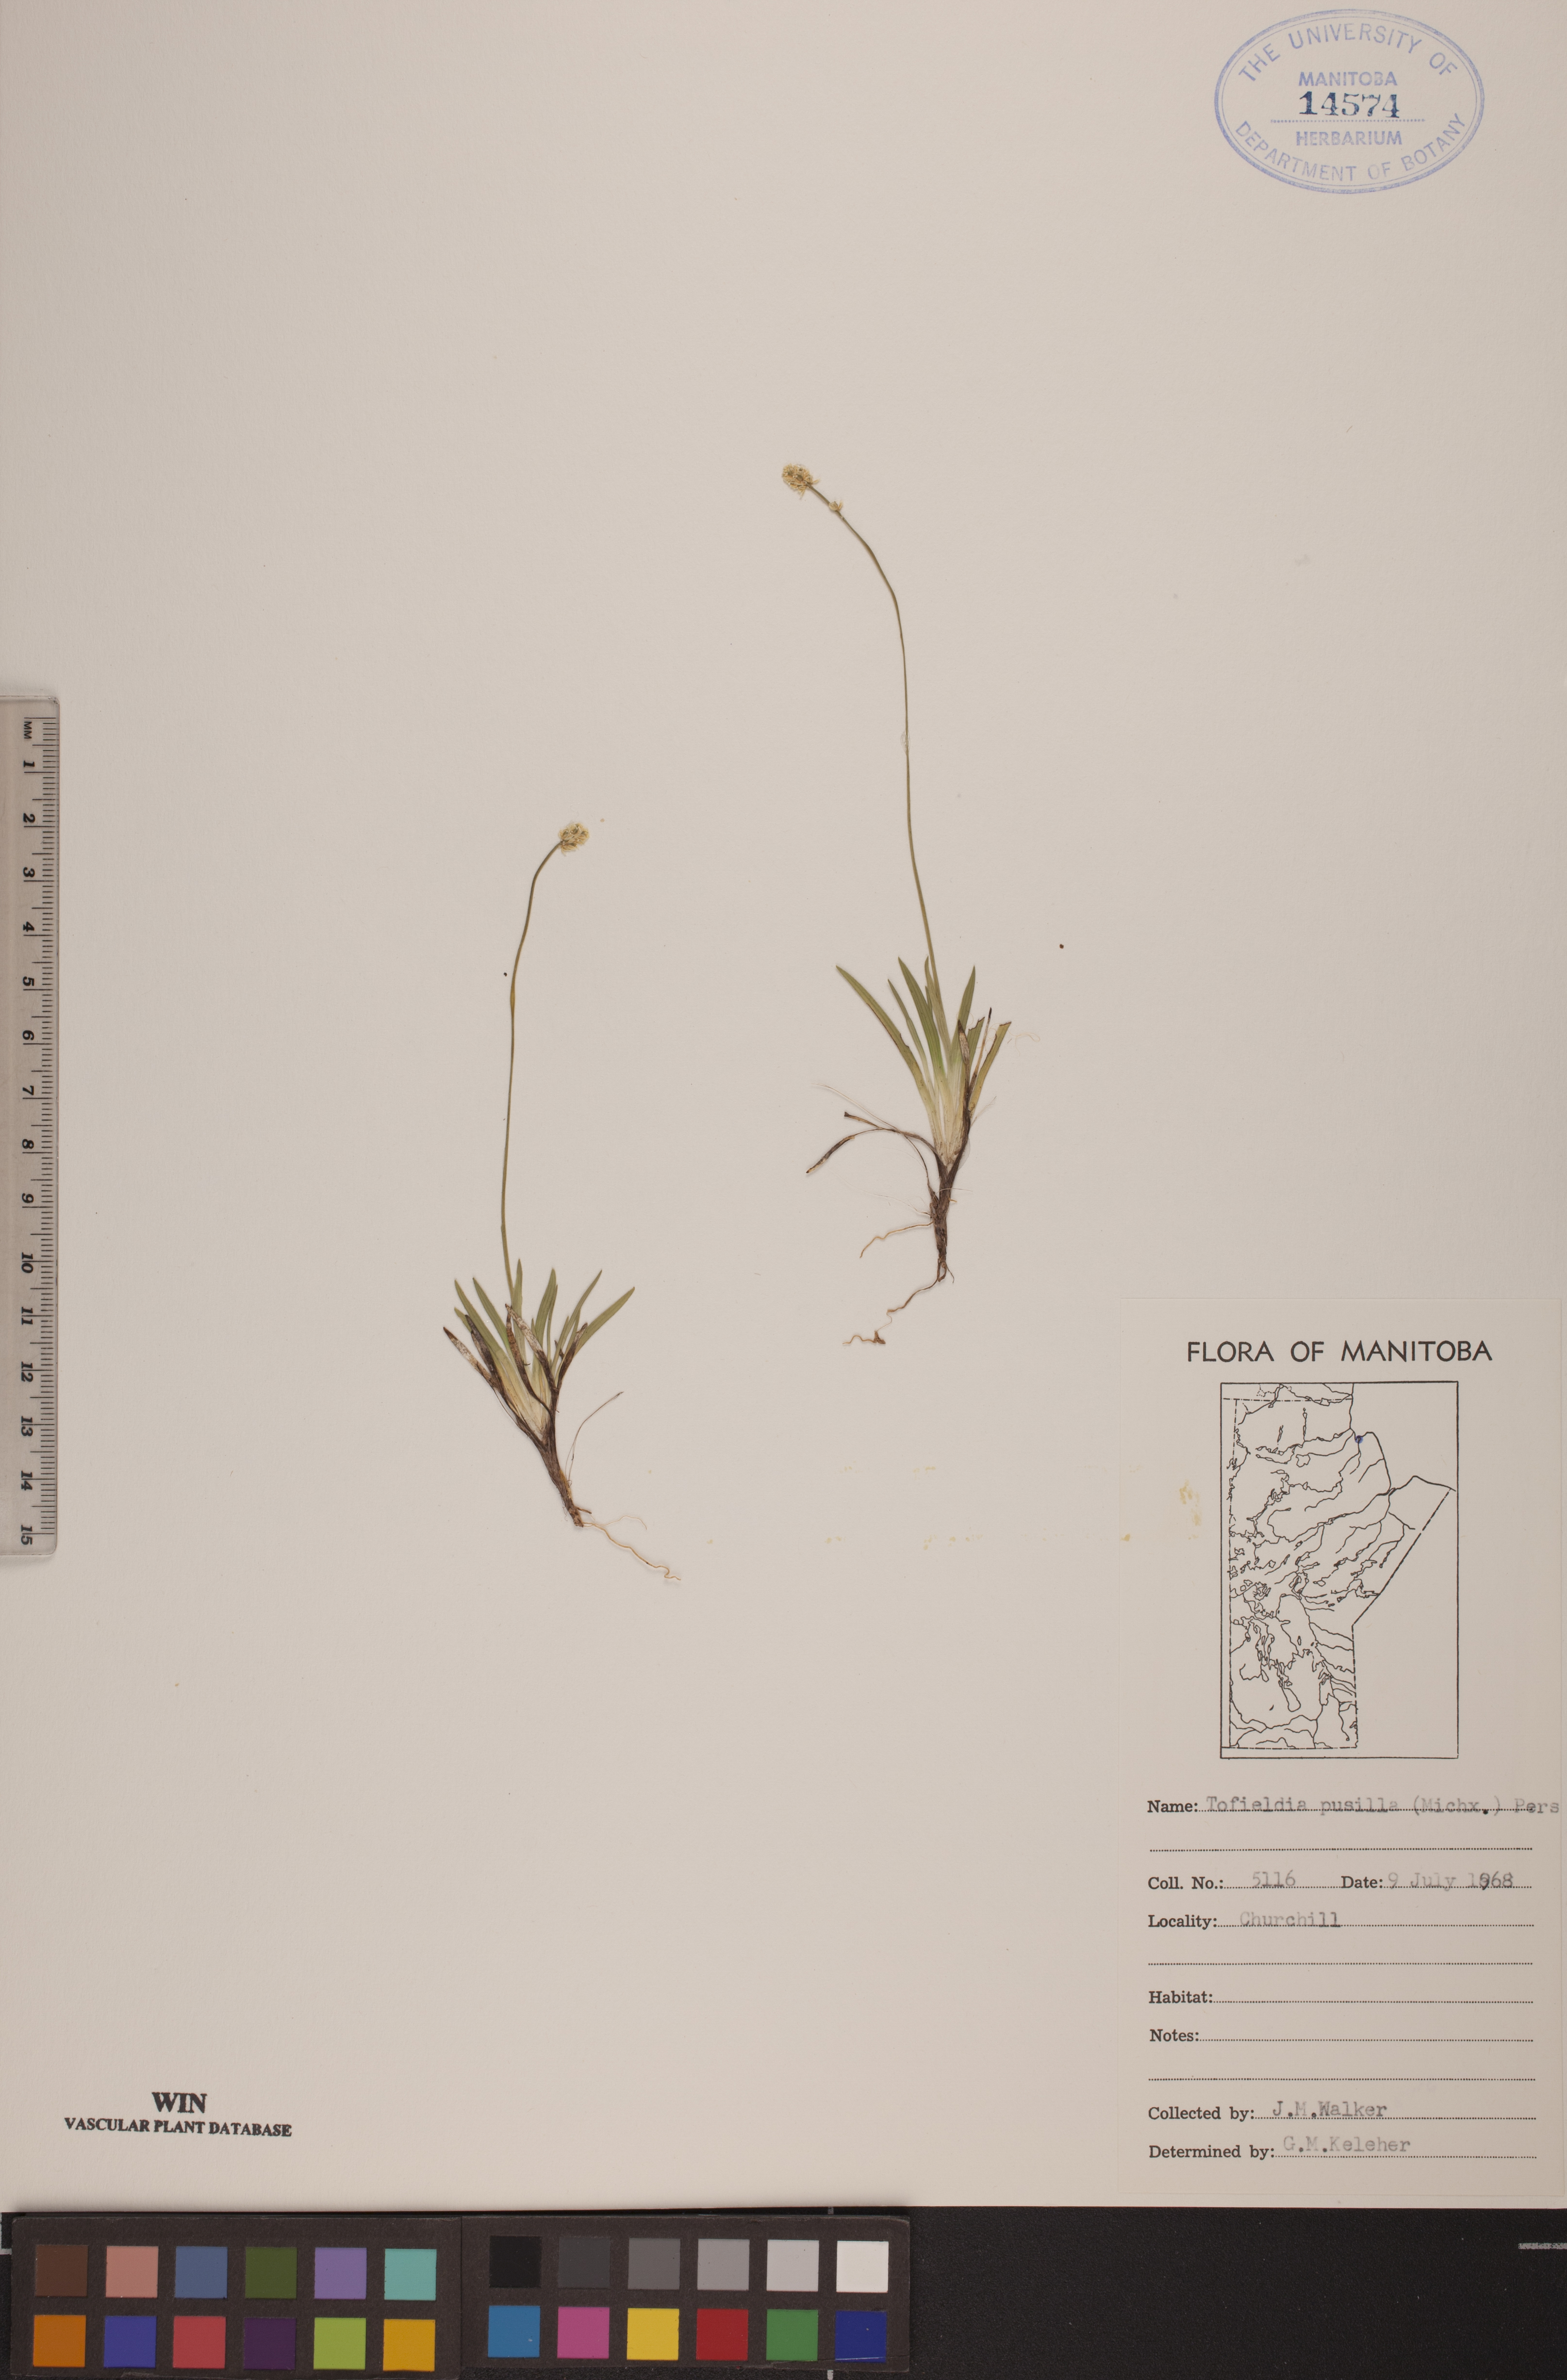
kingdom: Plantae
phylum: Tracheophyta
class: Liliopsida
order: Alismatales
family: Tofieldiaceae
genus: Tofieldia
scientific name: Tofieldia pusilla
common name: Scottish false asphodel
